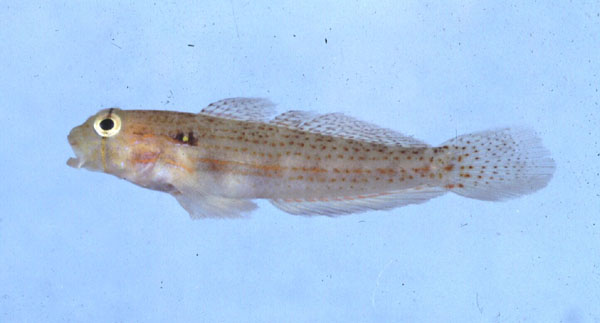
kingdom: Animalia
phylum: Chordata
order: Perciformes
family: Gobiidae
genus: Gnatholepis
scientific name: Gnatholepis
